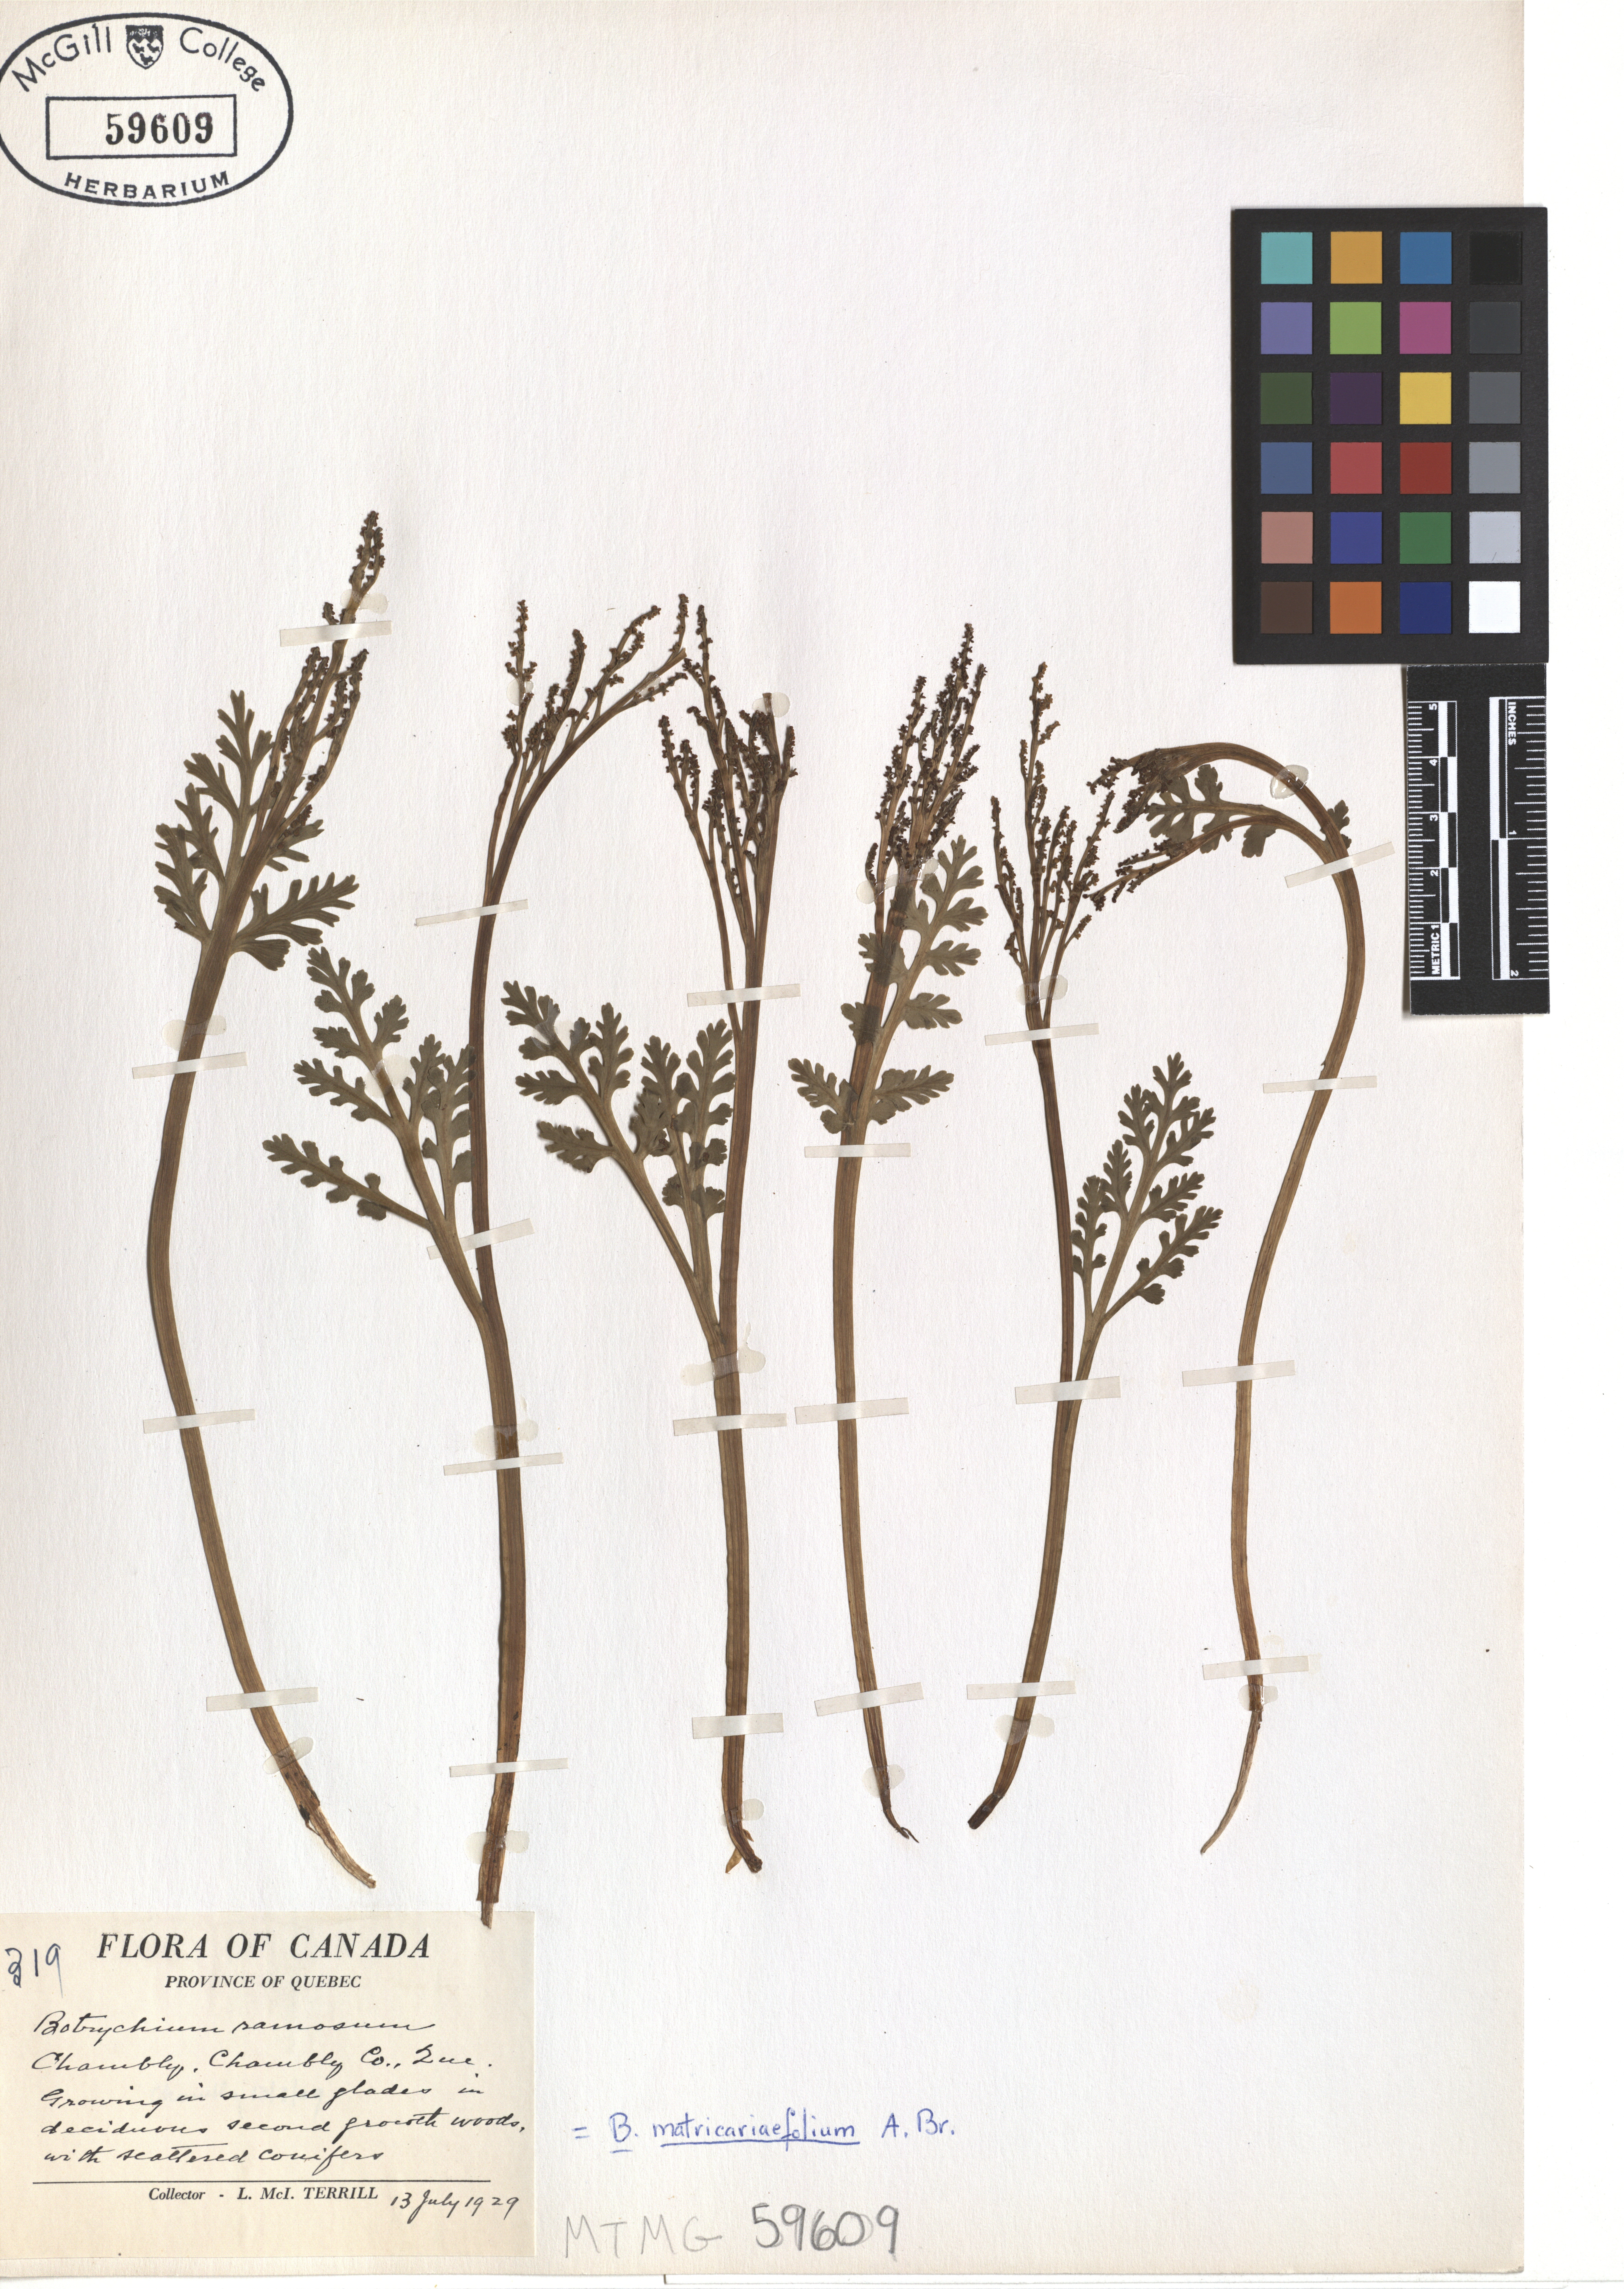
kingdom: Plantae
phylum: Tracheophyta
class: Polypodiopsida
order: Ophioglossales
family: Ophioglossaceae
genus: Botrychium
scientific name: Botrychium lanceolatum
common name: Lance-leaved moonwort
